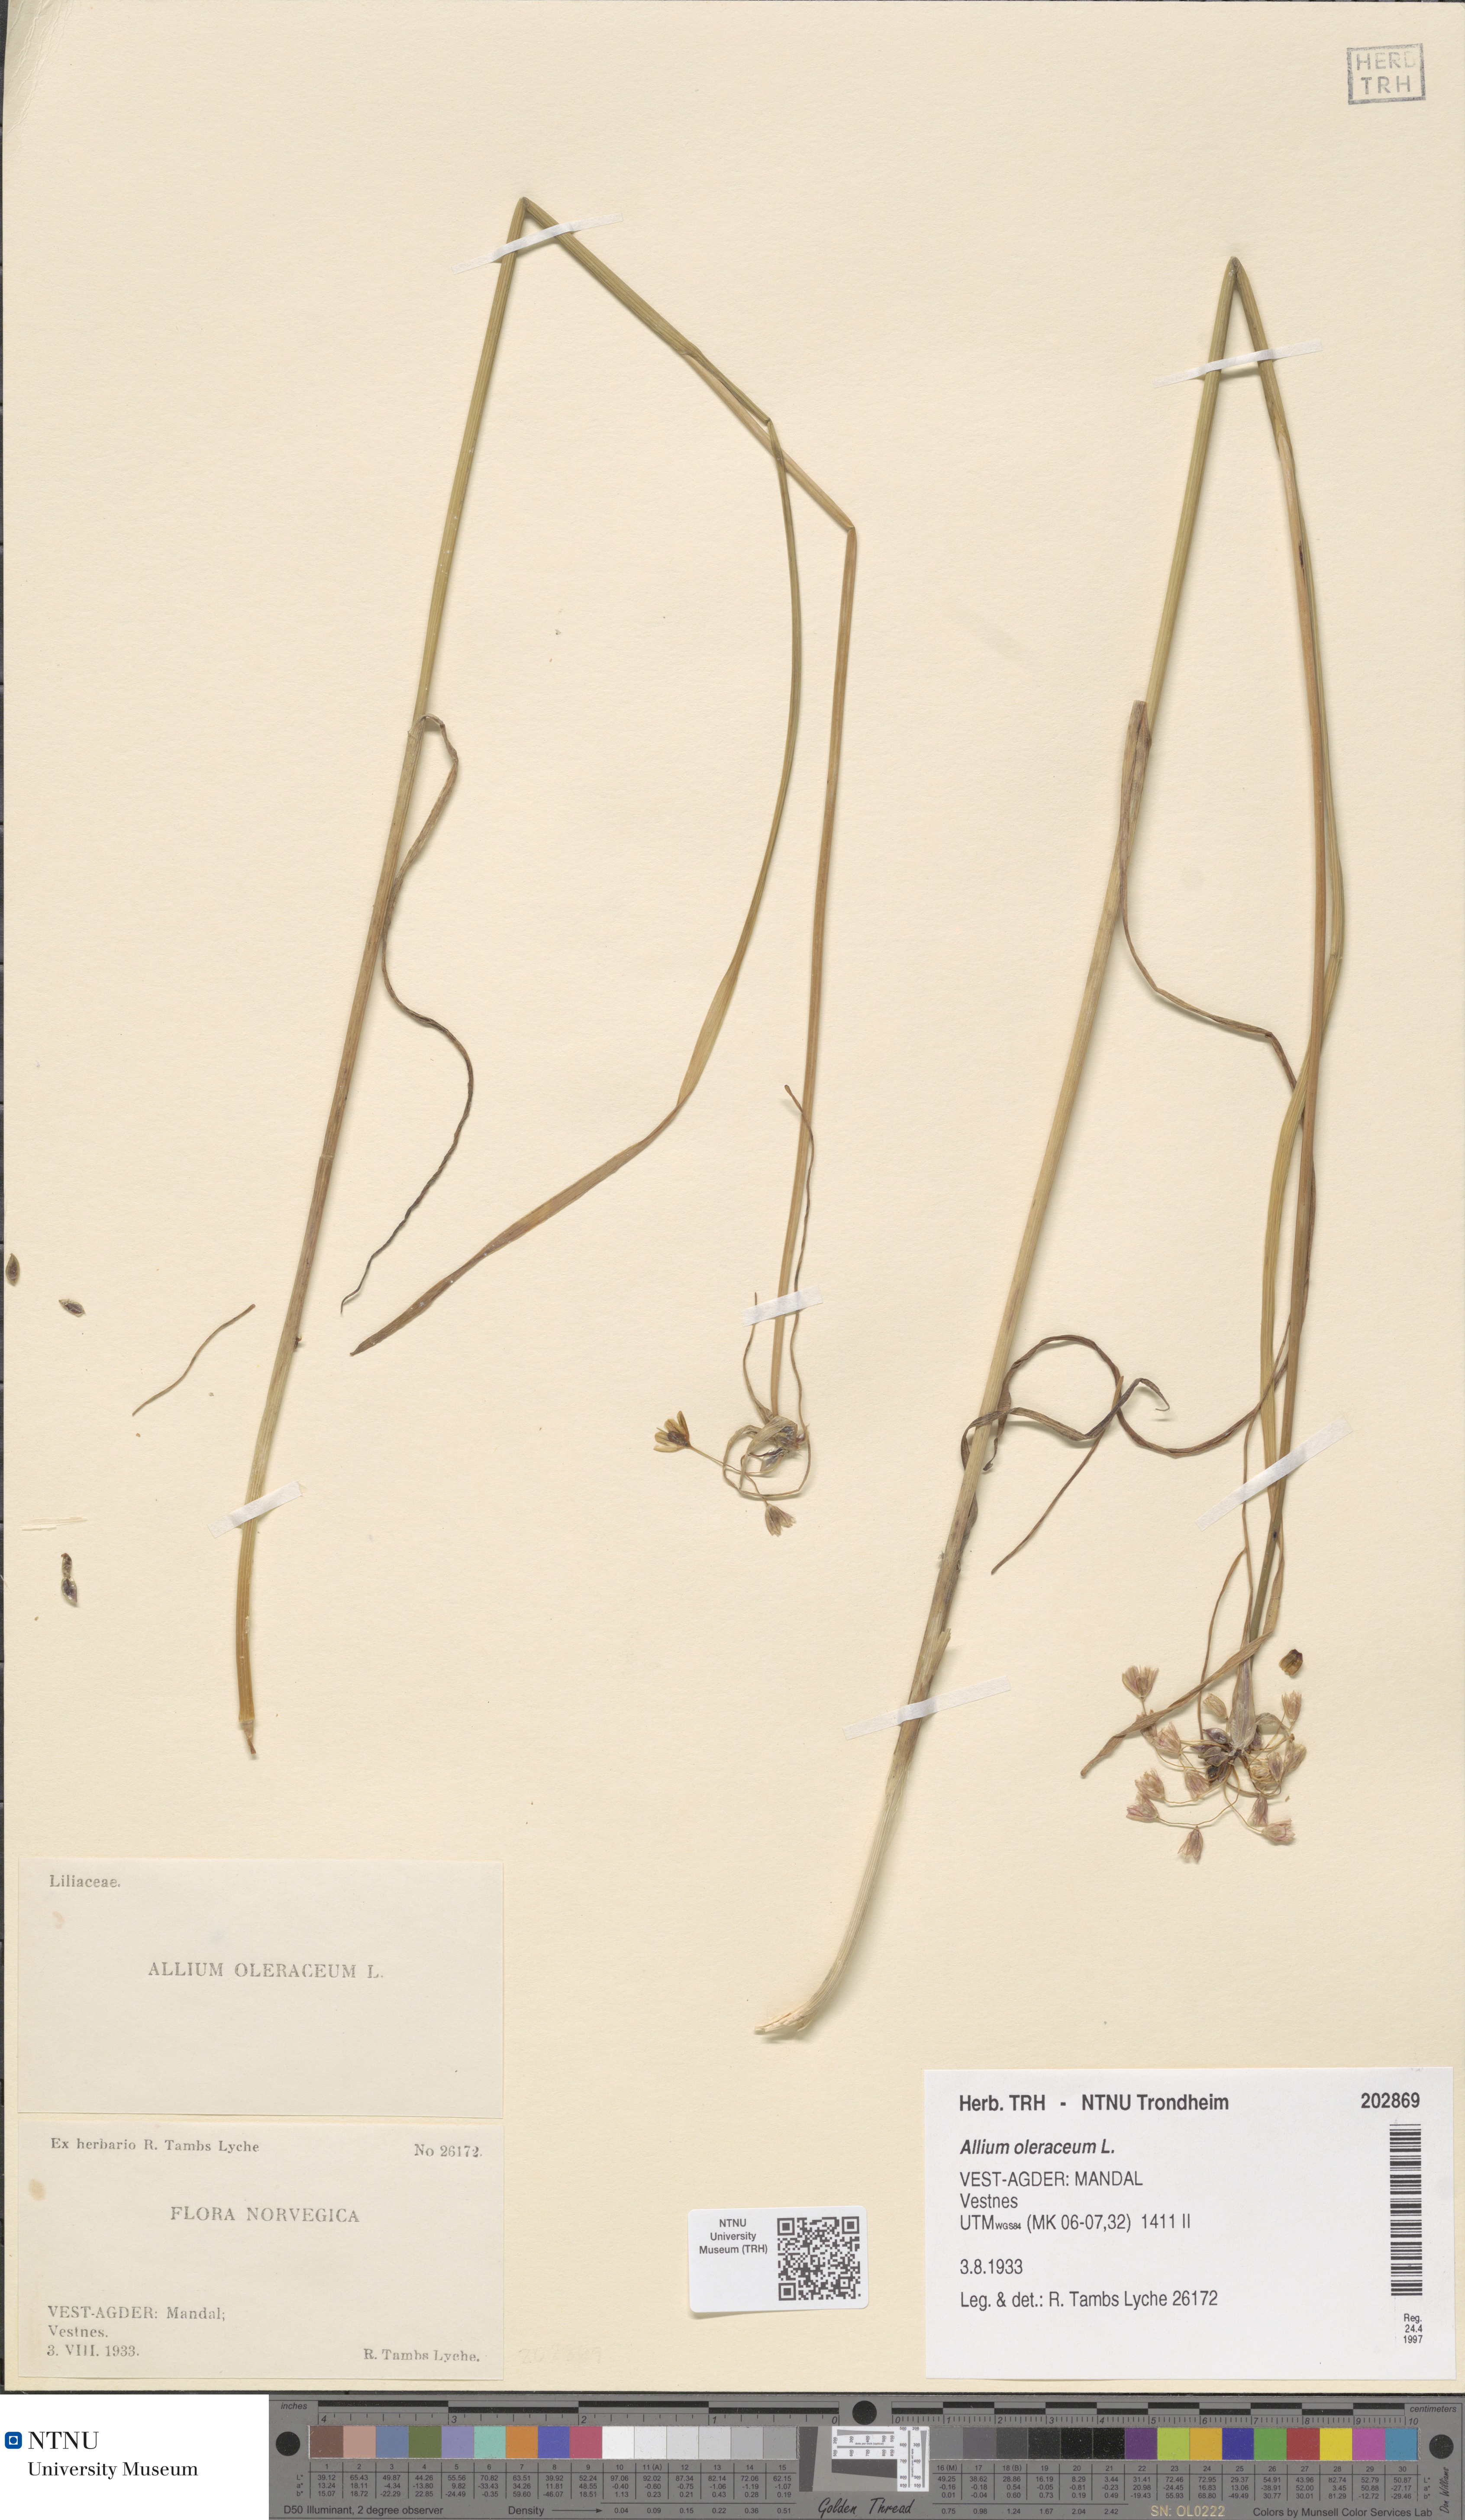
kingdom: Plantae
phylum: Tracheophyta
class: Liliopsida
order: Asparagales
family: Amaryllidaceae
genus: Allium
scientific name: Allium oleraceum
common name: Field garlic
